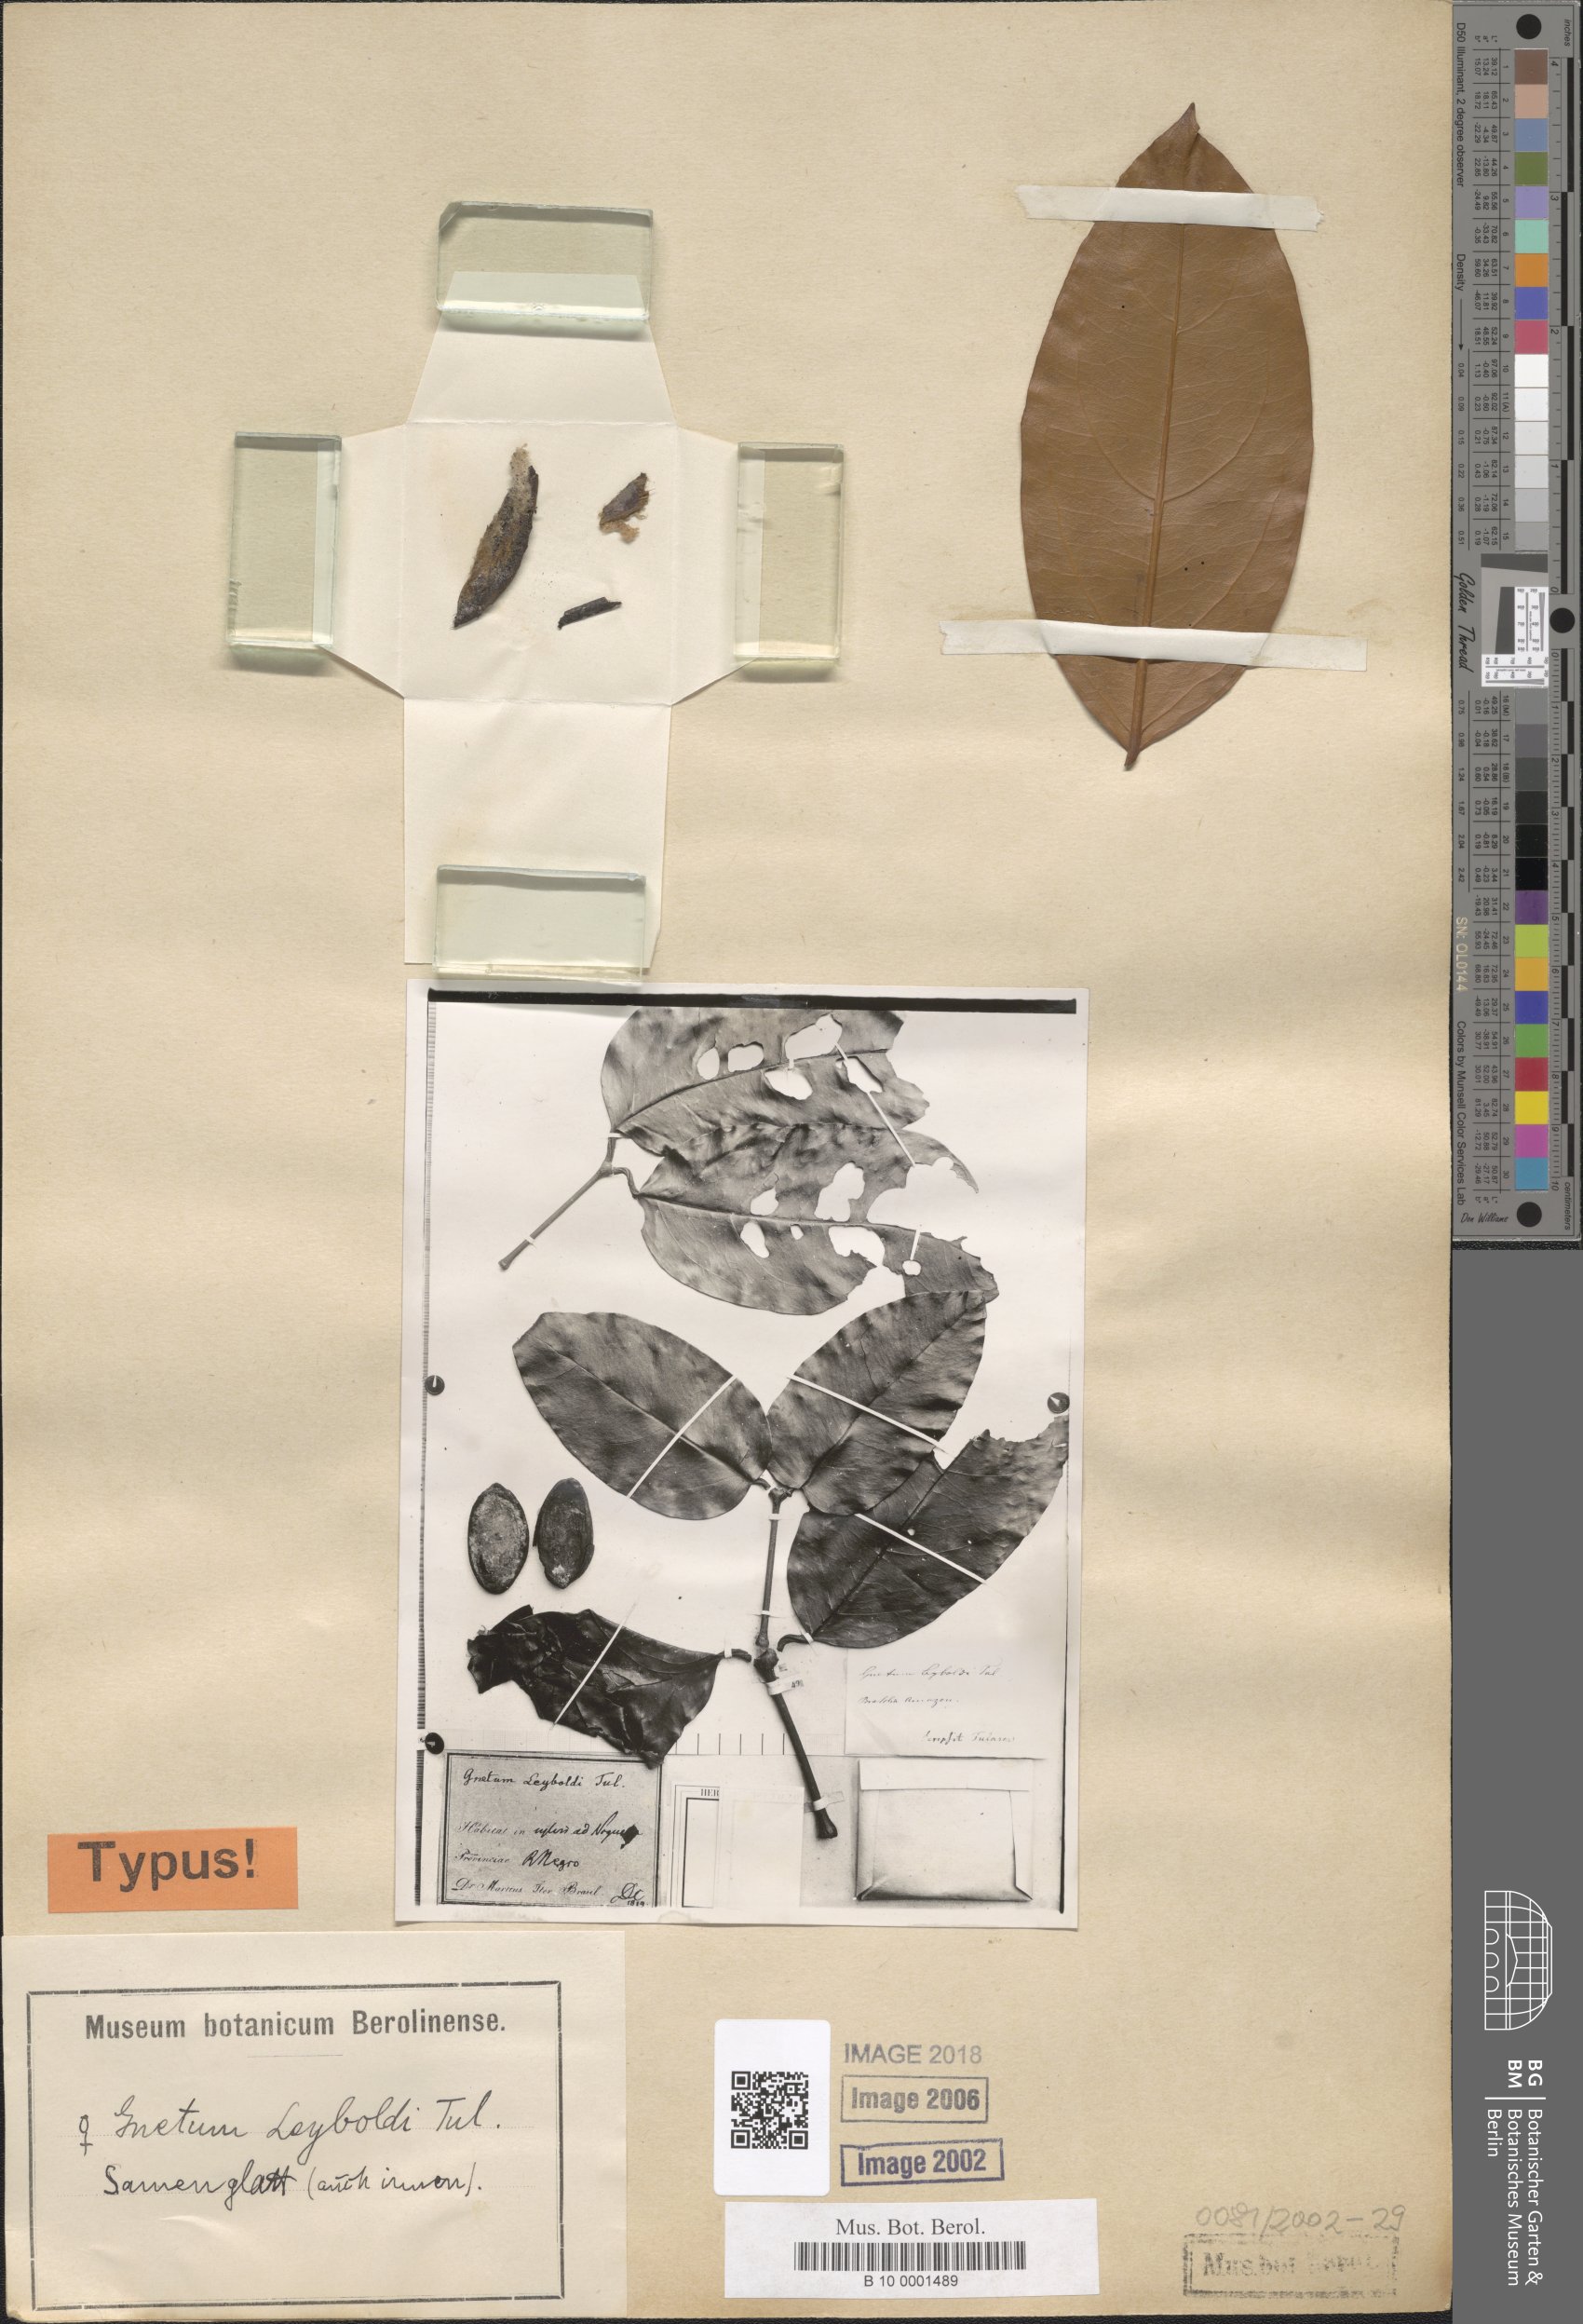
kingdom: Plantae
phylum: Tracheophyta
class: Gnetopsida
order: Gnetales
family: Gnetaceae
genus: Gnetum
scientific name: Gnetum leyboldii
